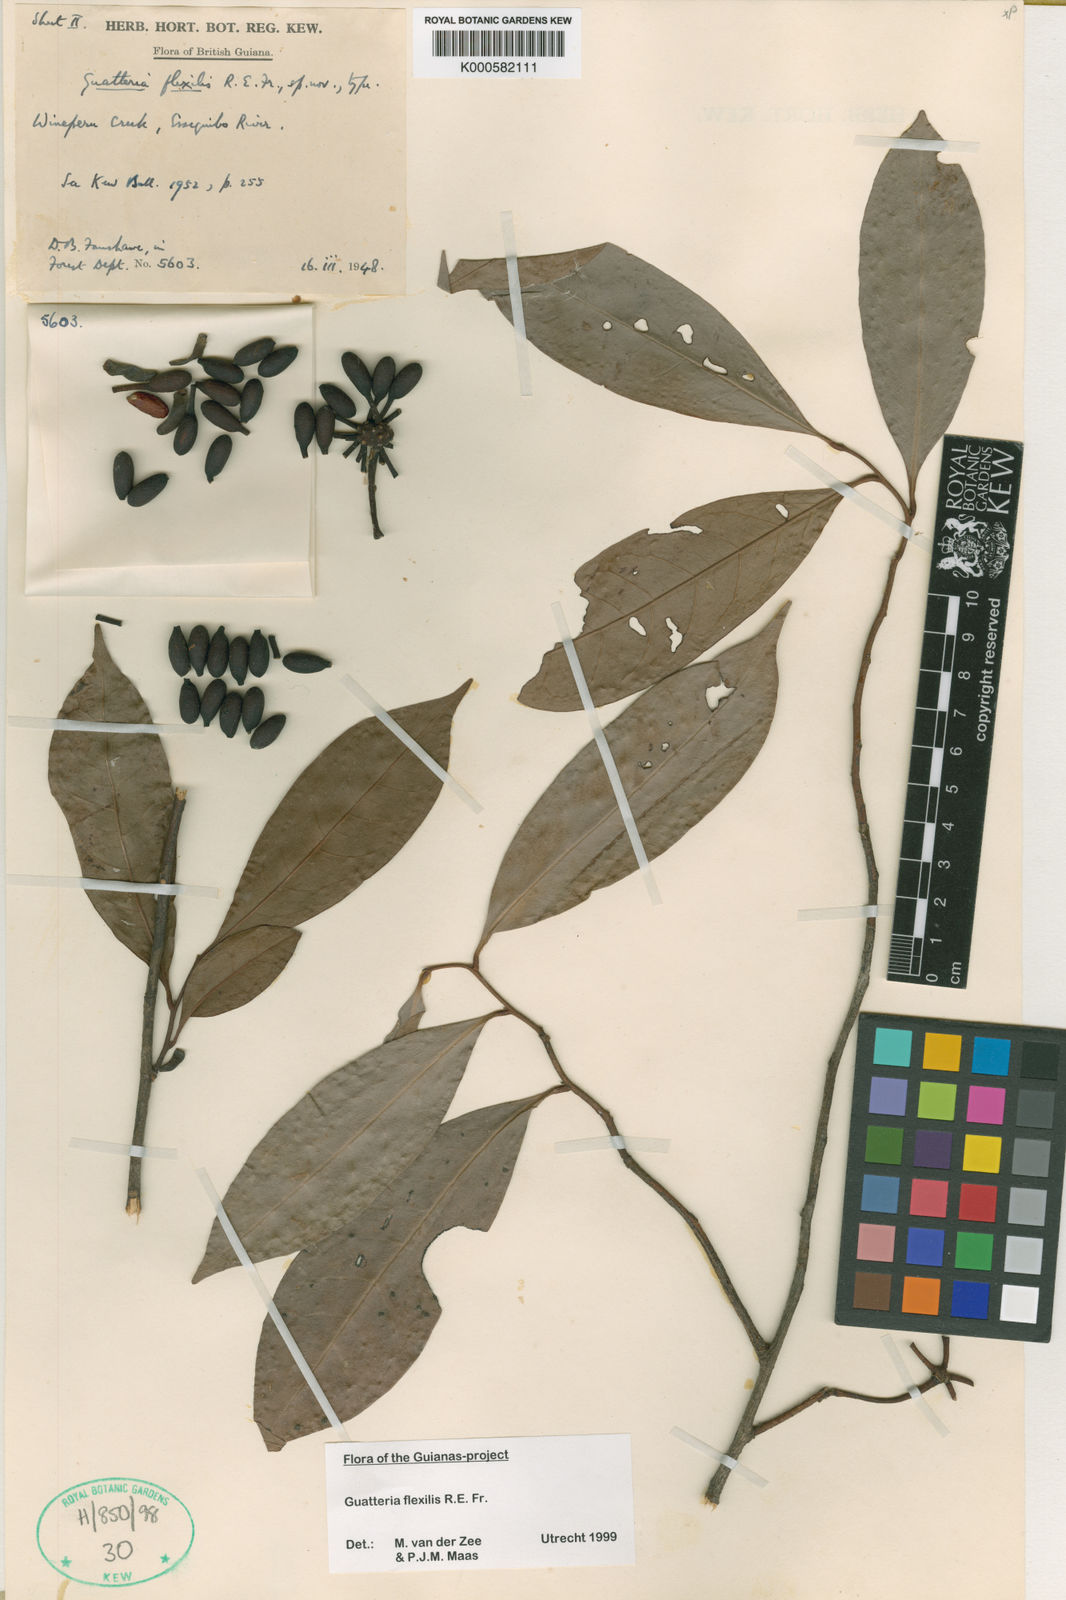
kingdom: Plantae
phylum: Tracheophyta
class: Magnoliopsida
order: Magnoliales
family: Annonaceae
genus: Guatteria
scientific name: Guatteria flexilis
